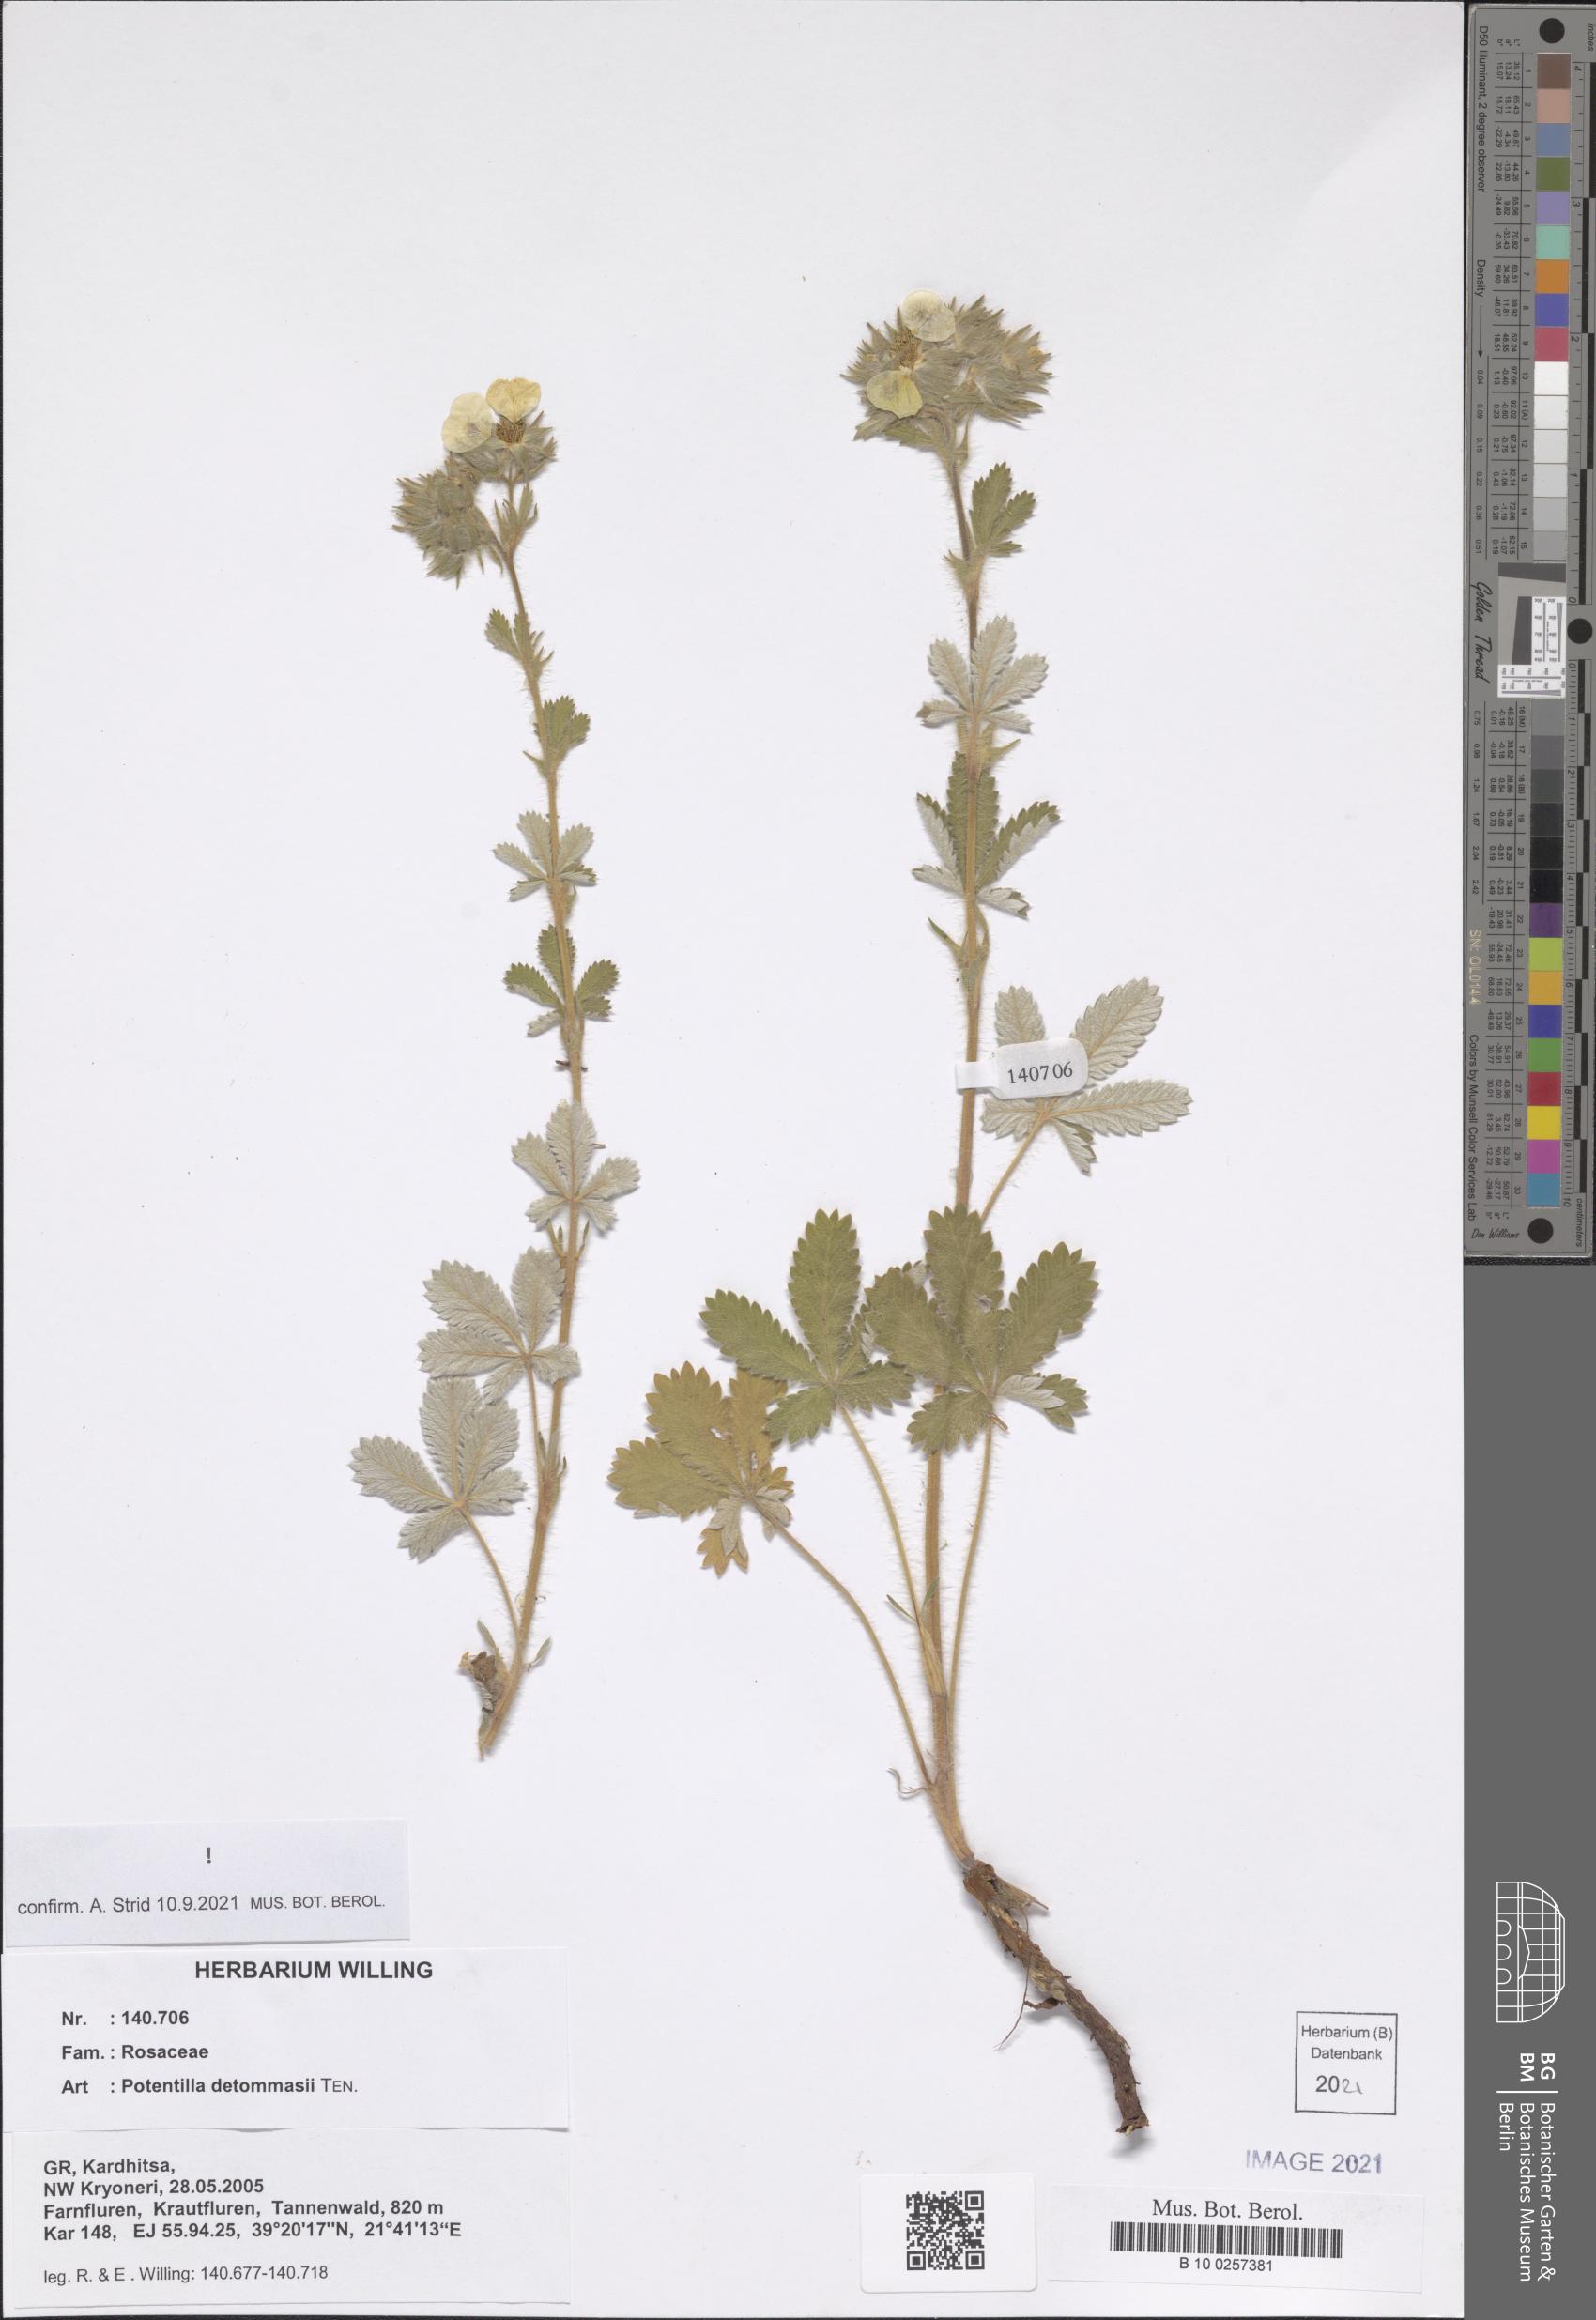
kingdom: Plantae
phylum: Tracheophyta
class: Magnoliopsida
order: Rosales
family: Rosaceae
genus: Potentilla
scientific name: Potentilla detommasii
